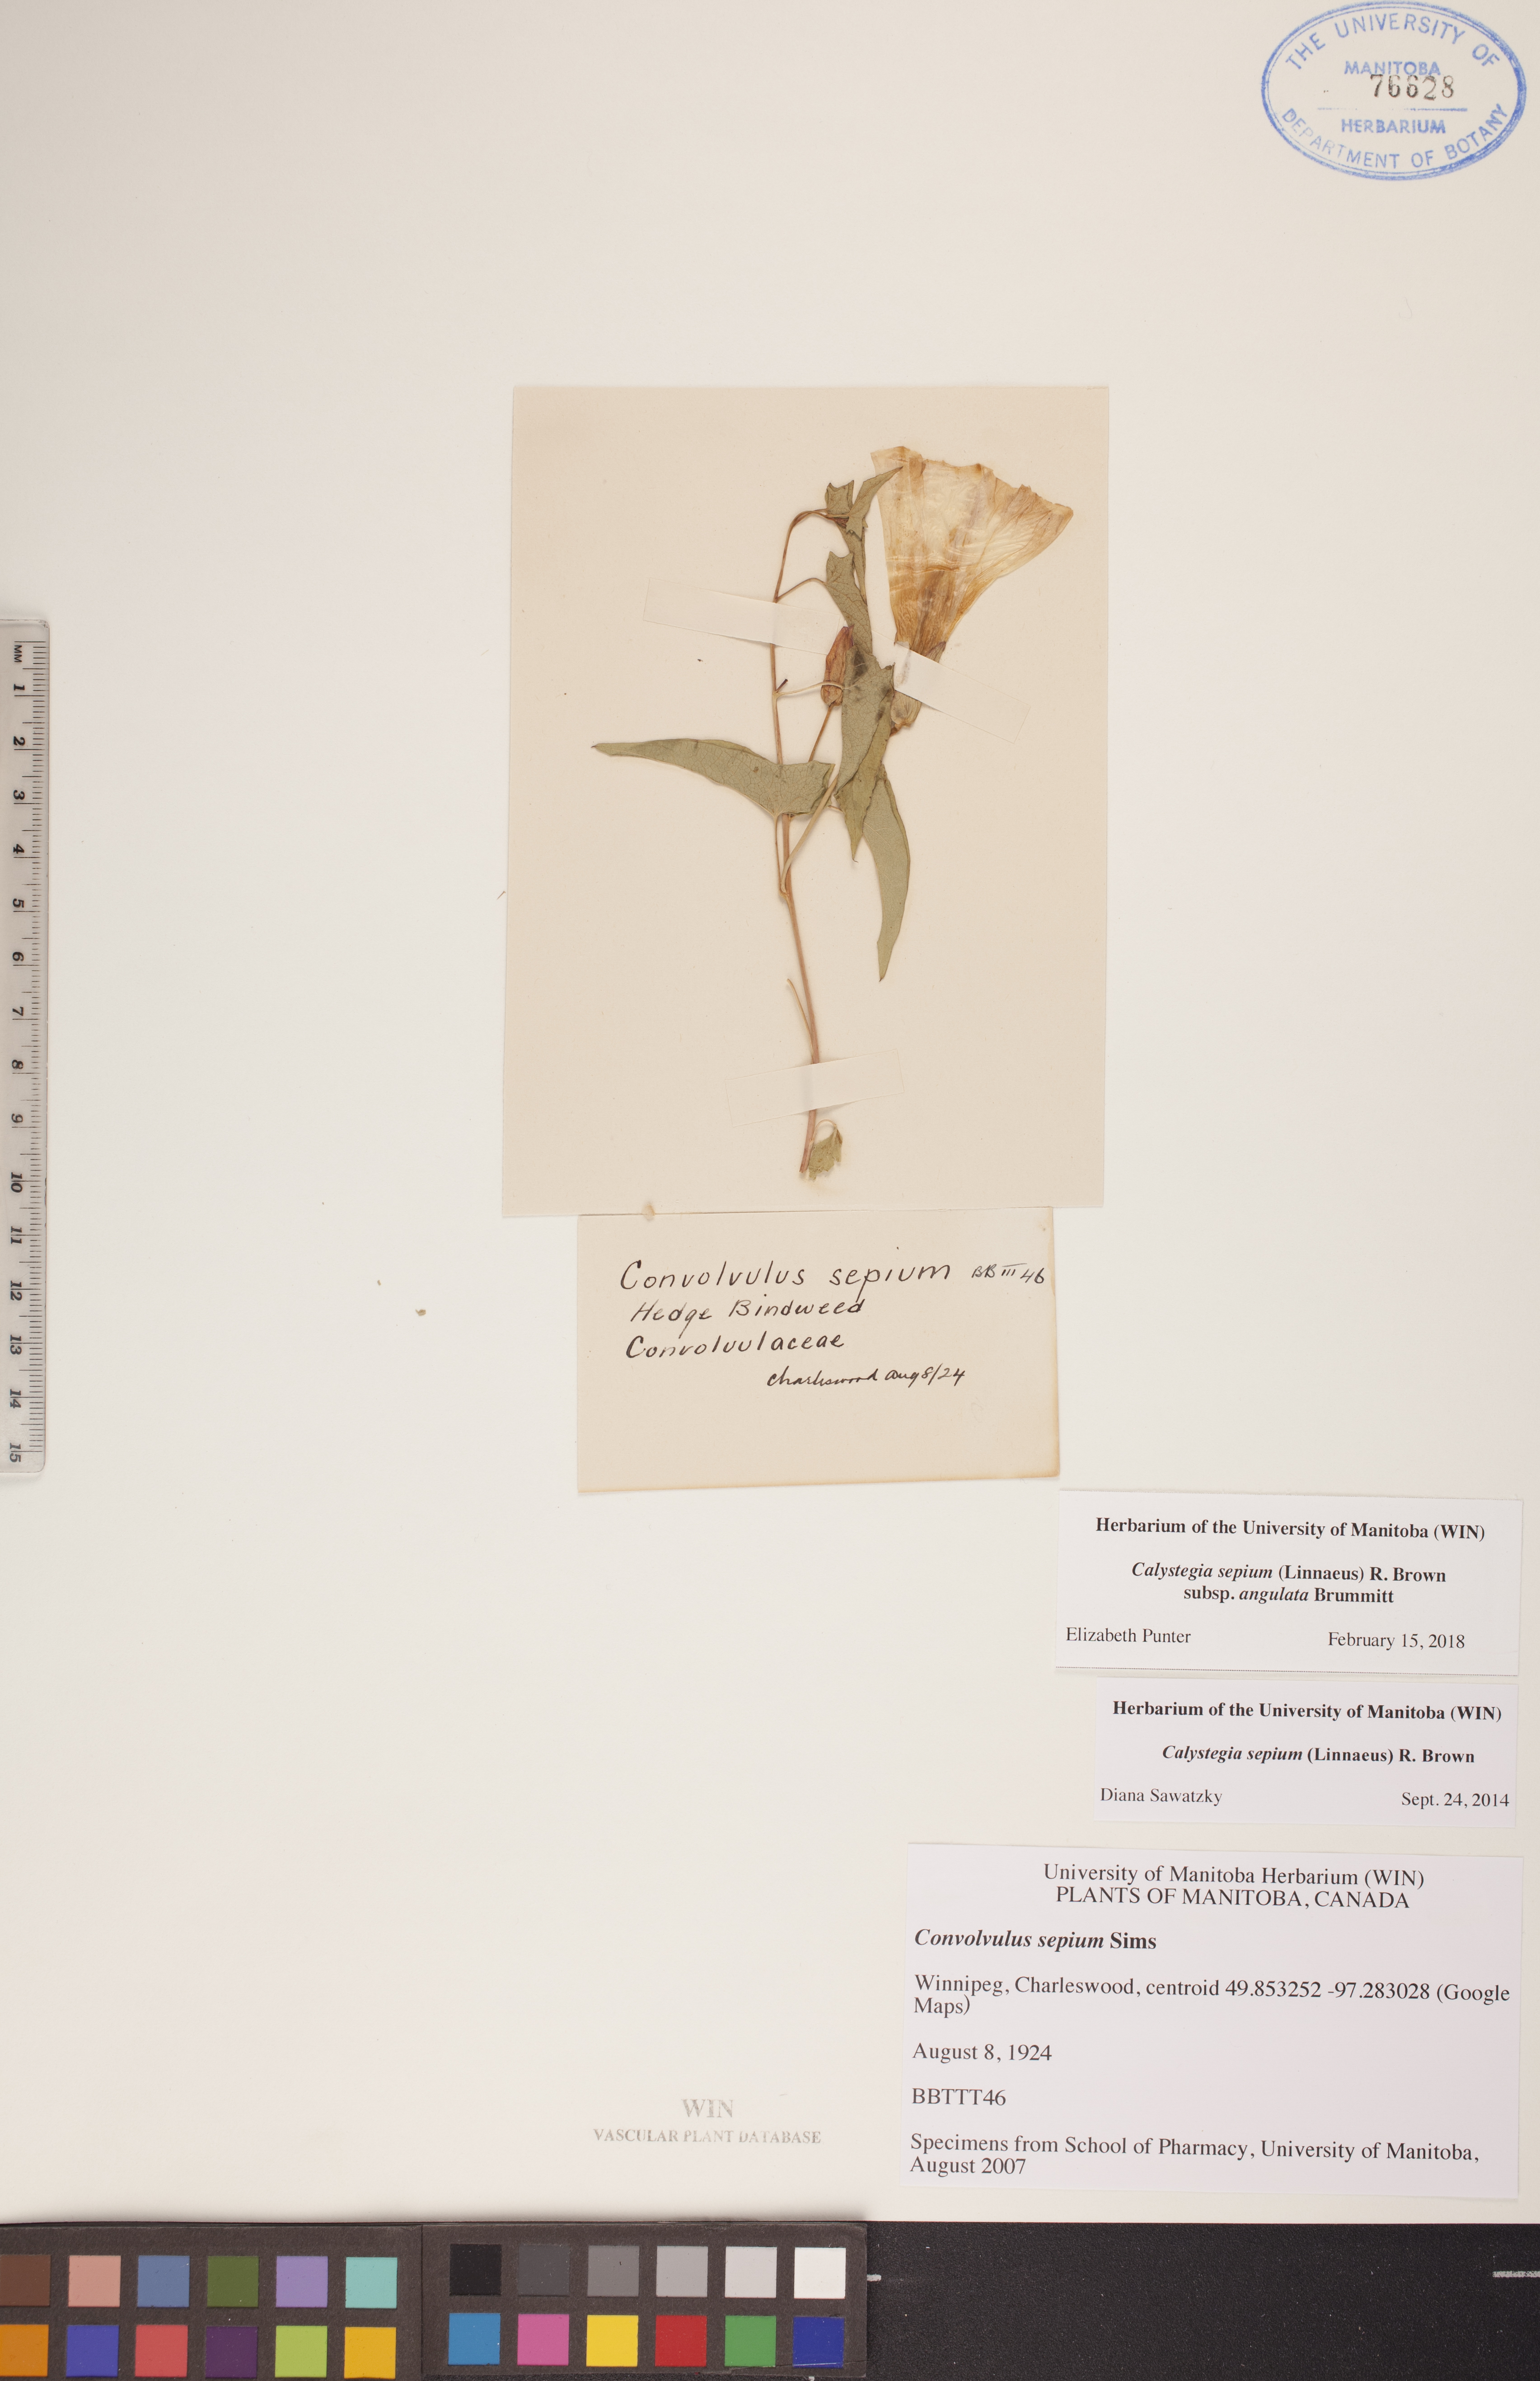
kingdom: Plantae
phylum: Tracheophyta
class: Magnoliopsida
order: Solanales
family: Convolvulaceae
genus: Calystegia
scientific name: Calystegia sepium
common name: Hedge bindweed
